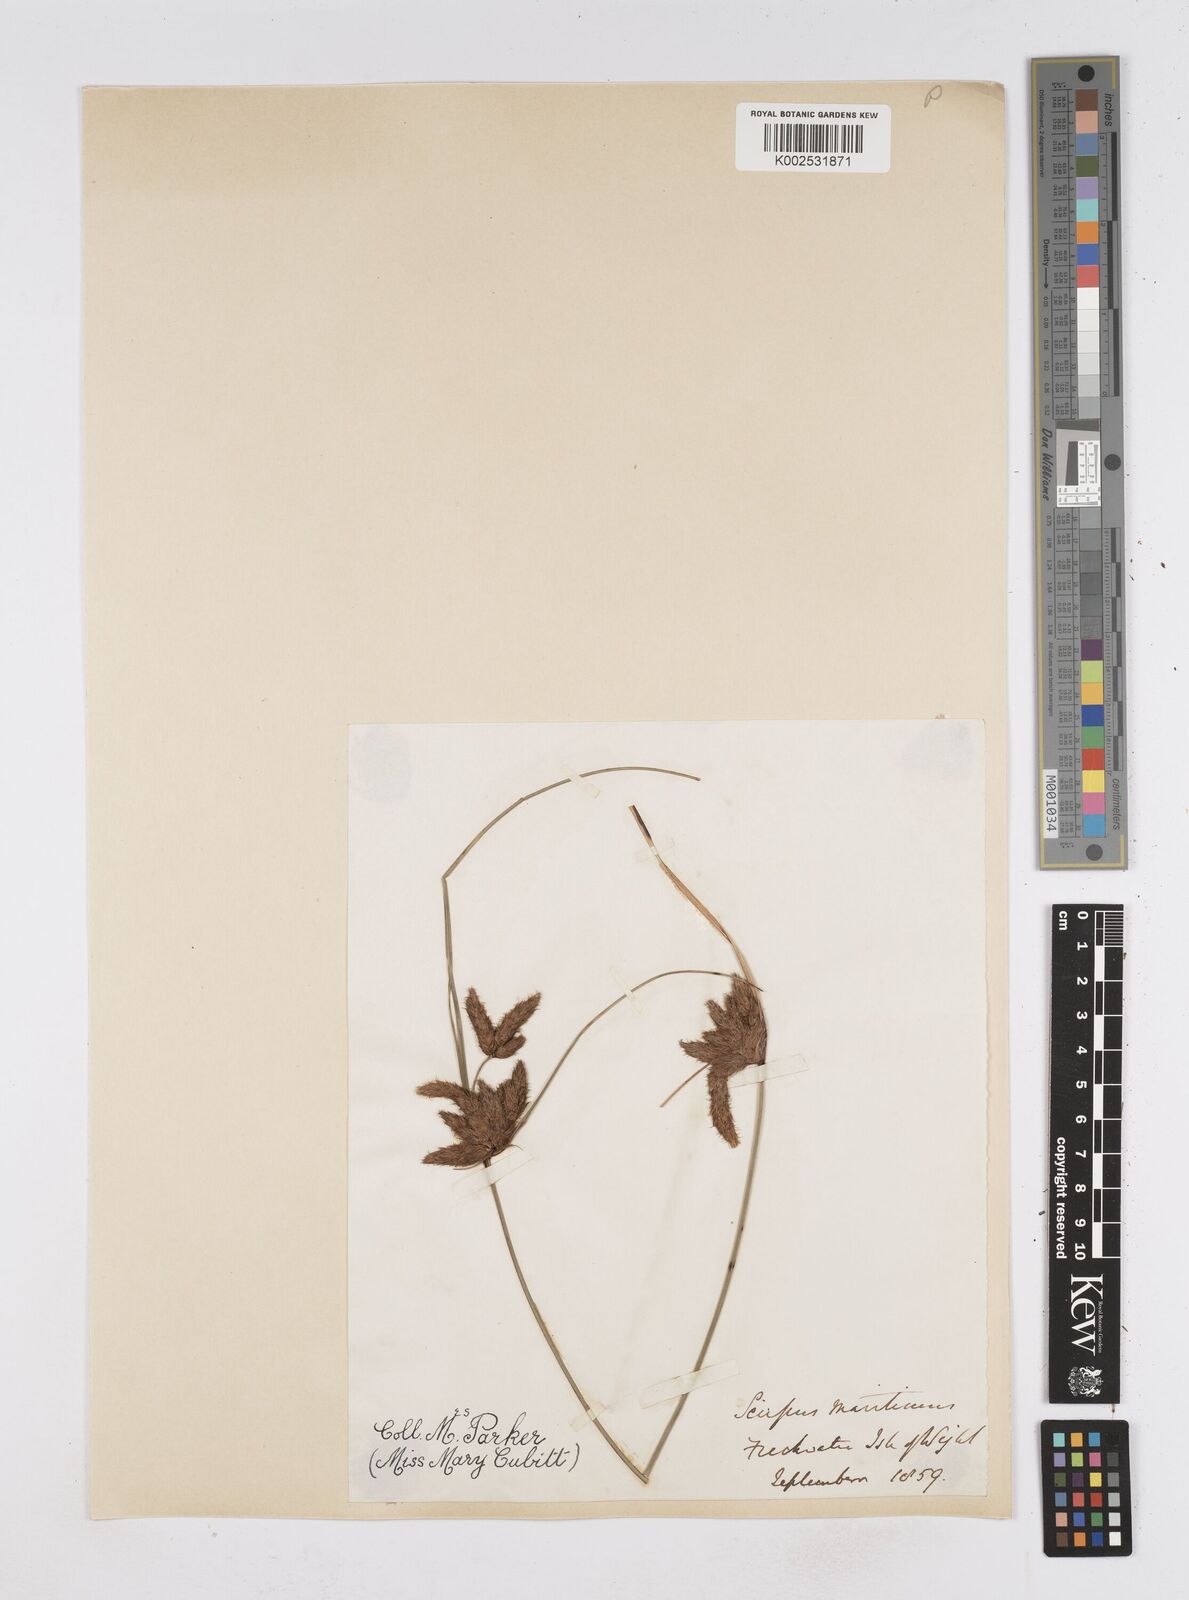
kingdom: Plantae
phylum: Tracheophyta
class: Liliopsida
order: Poales
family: Cyperaceae
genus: Bolboschoenus
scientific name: Bolboschoenus maritimus
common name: Sea club-rush
